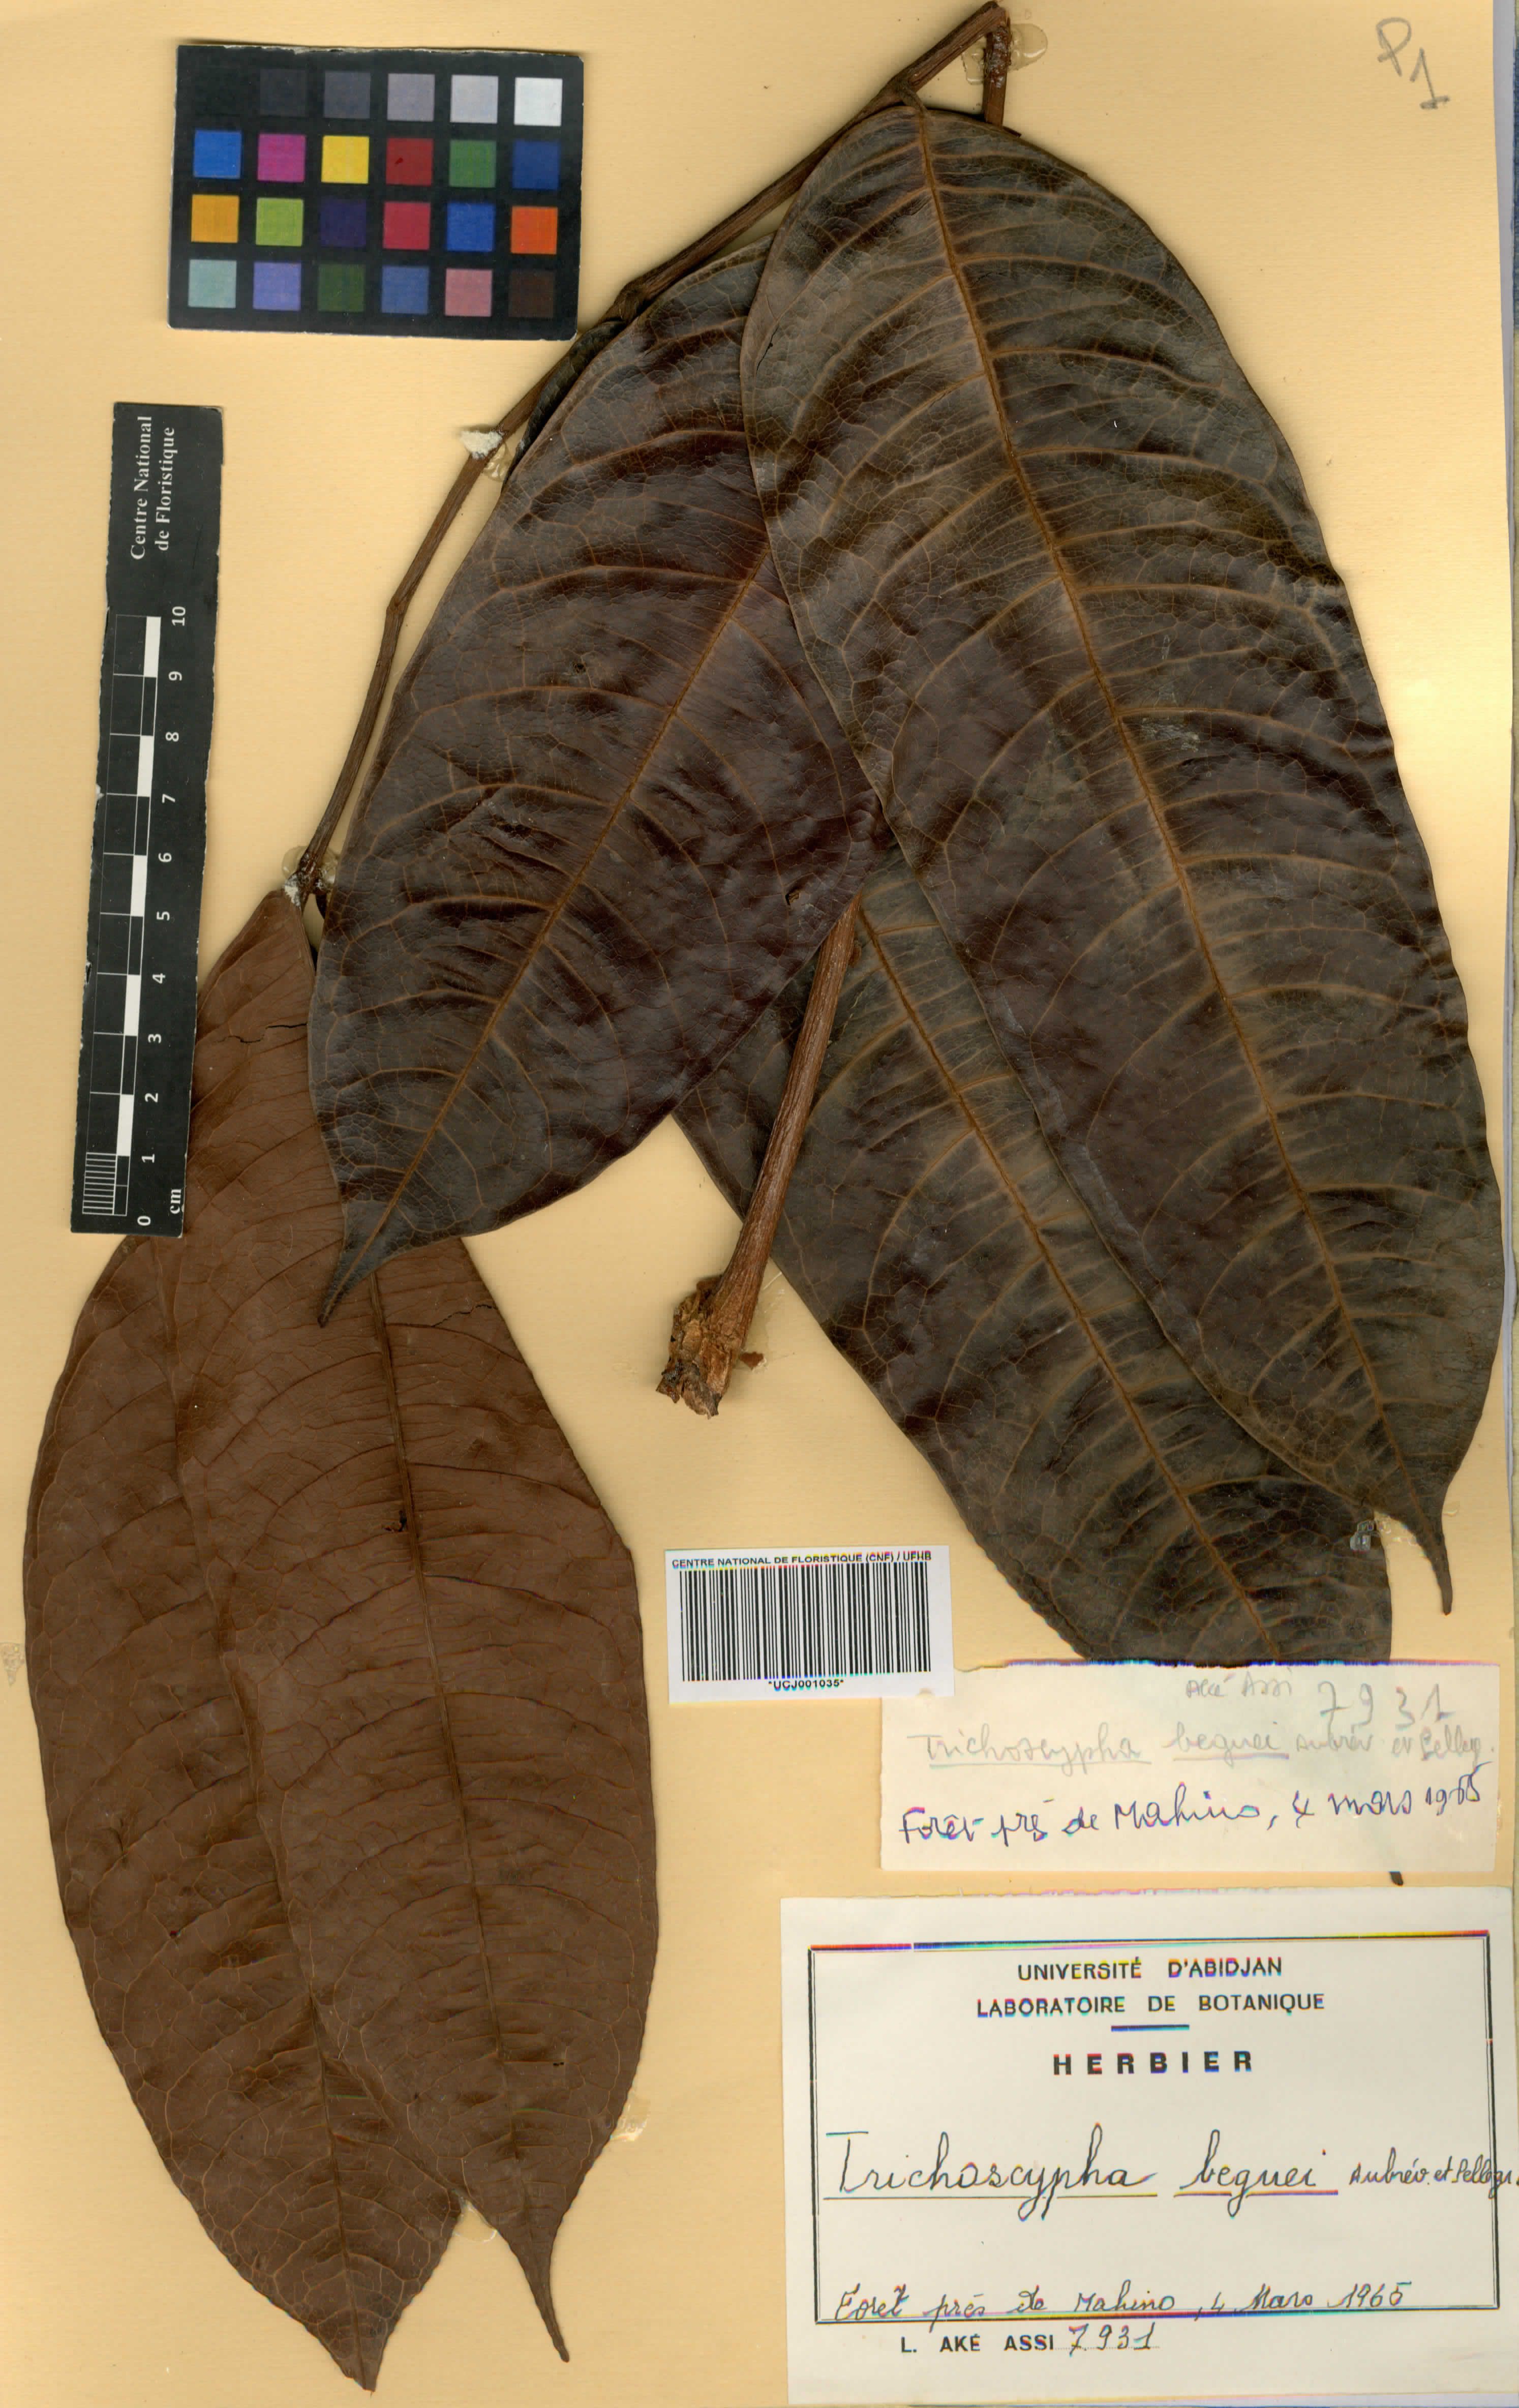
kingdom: Plantae
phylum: Tracheophyta
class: Magnoliopsida
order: Sapindales
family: Anacardiaceae
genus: Trichoscypha
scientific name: Trichoscypha bijuga
